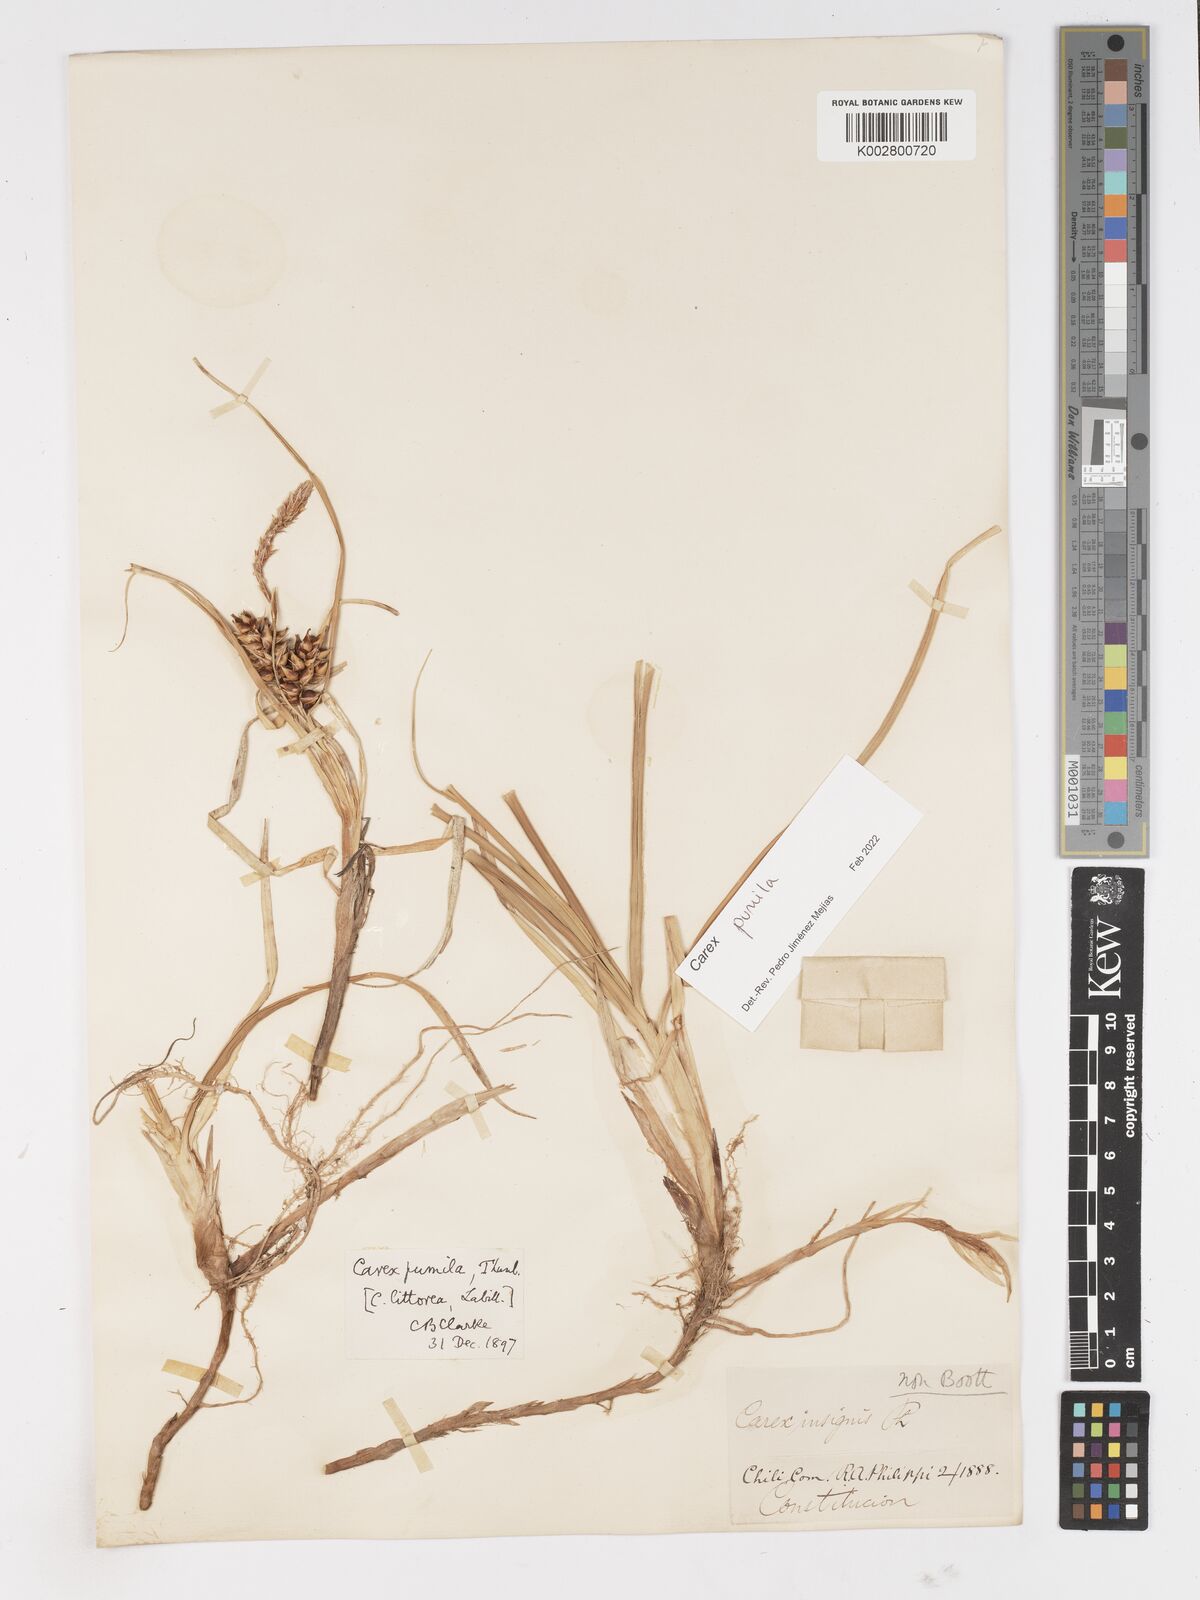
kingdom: Plantae
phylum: Tracheophyta
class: Liliopsida
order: Poales
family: Cyperaceae
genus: Carex
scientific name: Carex pumila
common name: Dwarf sedge
